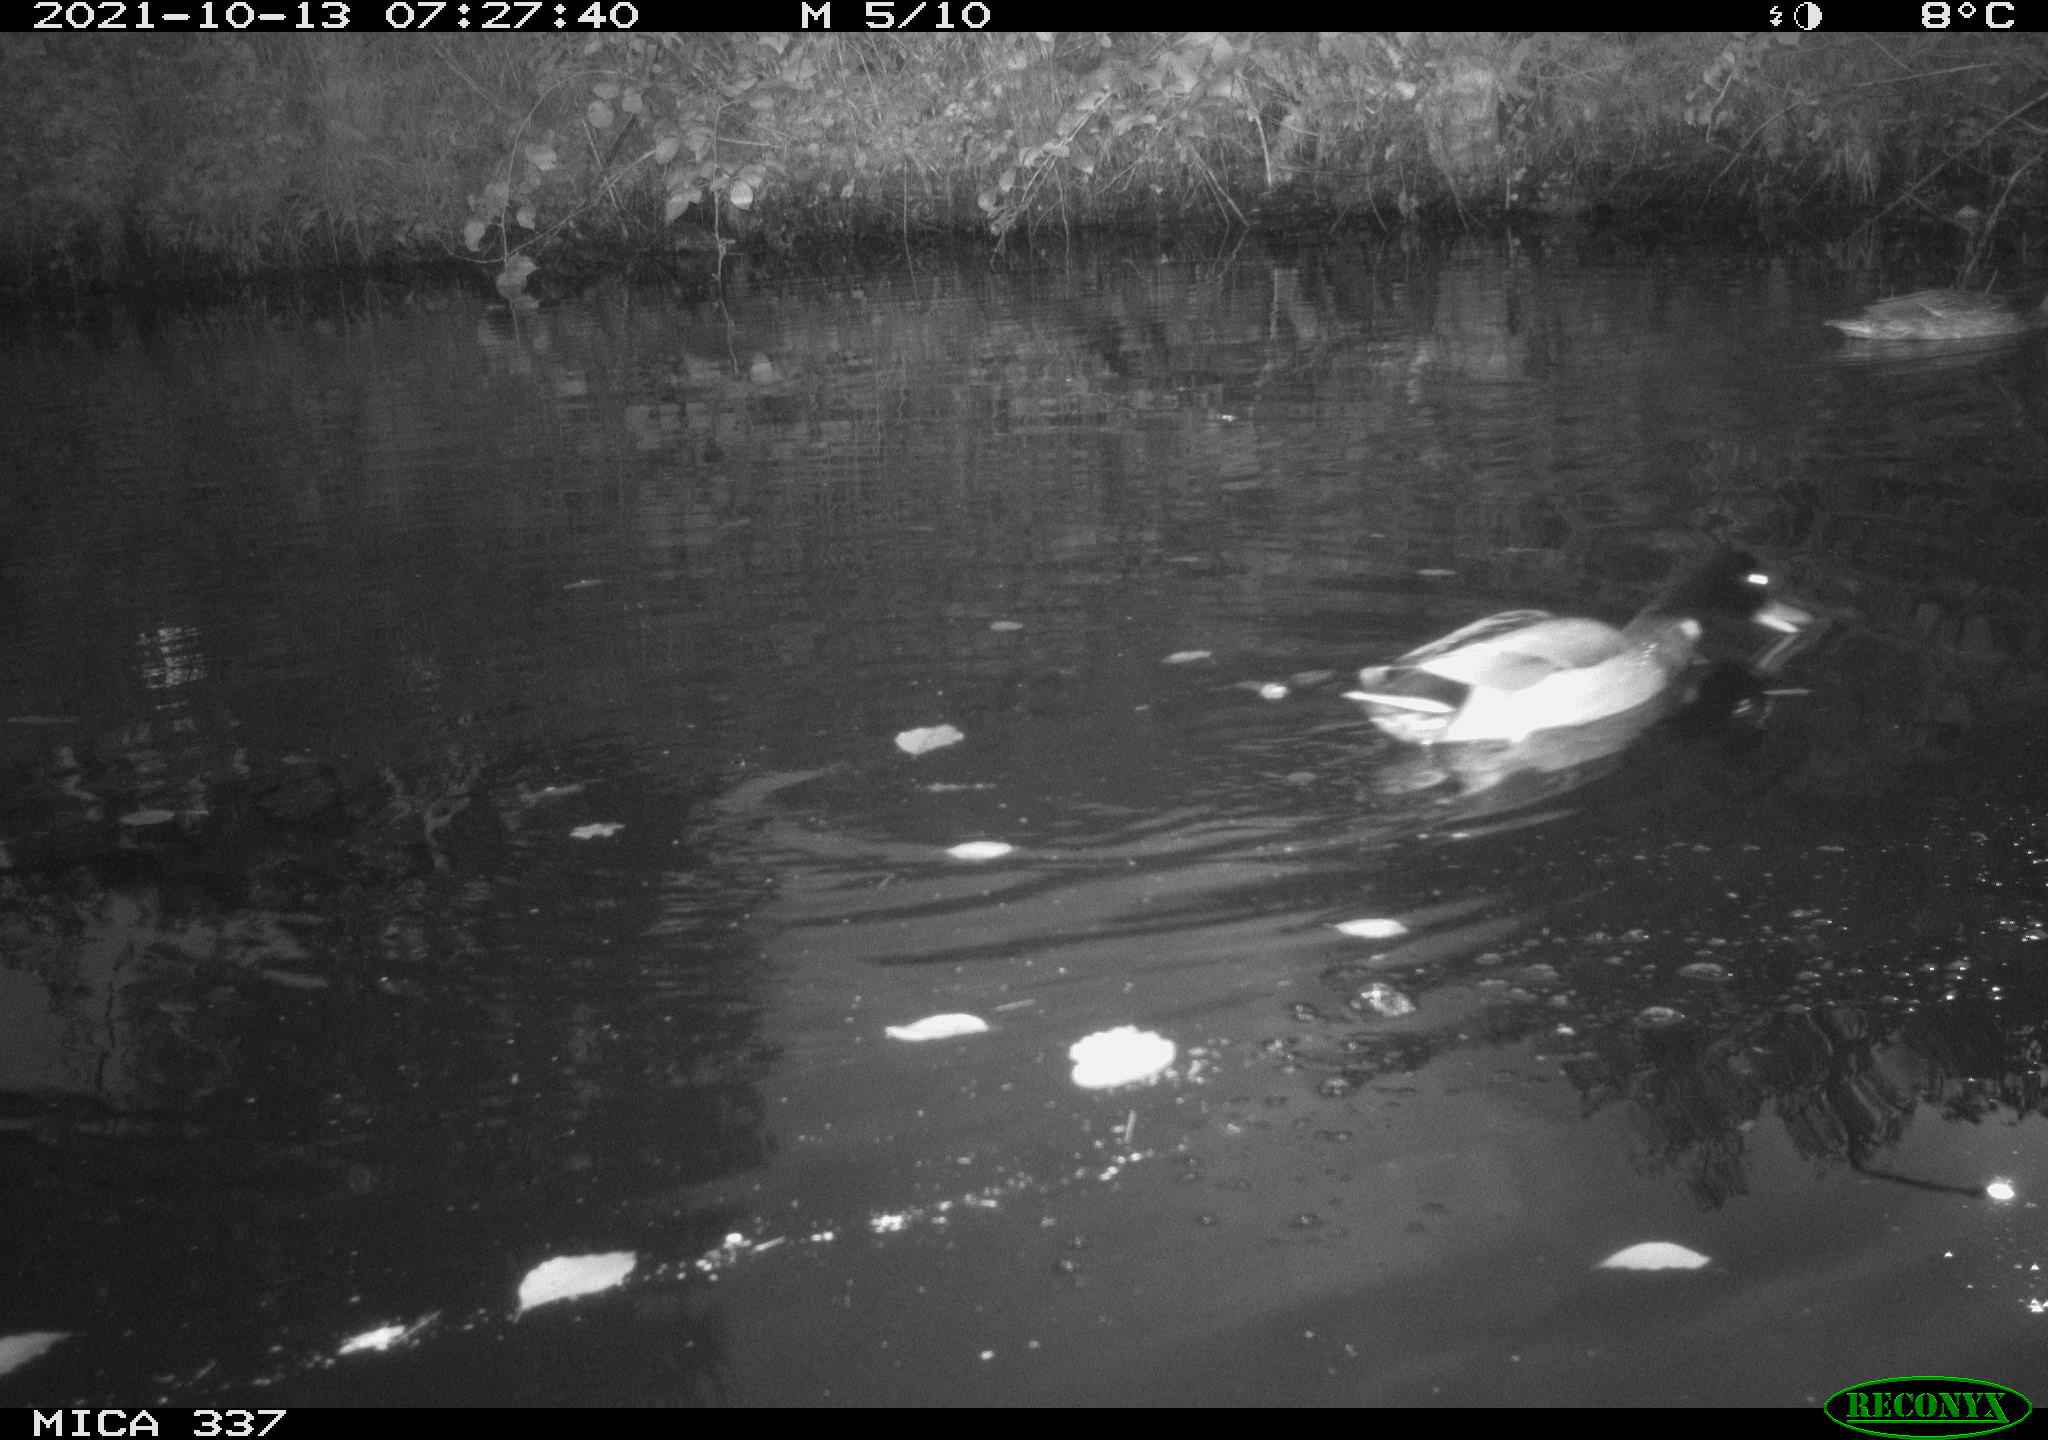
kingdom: Animalia
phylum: Chordata
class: Aves
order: Anseriformes
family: Anatidae
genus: Anas
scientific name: Anas platyrhynchos
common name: Mallard
